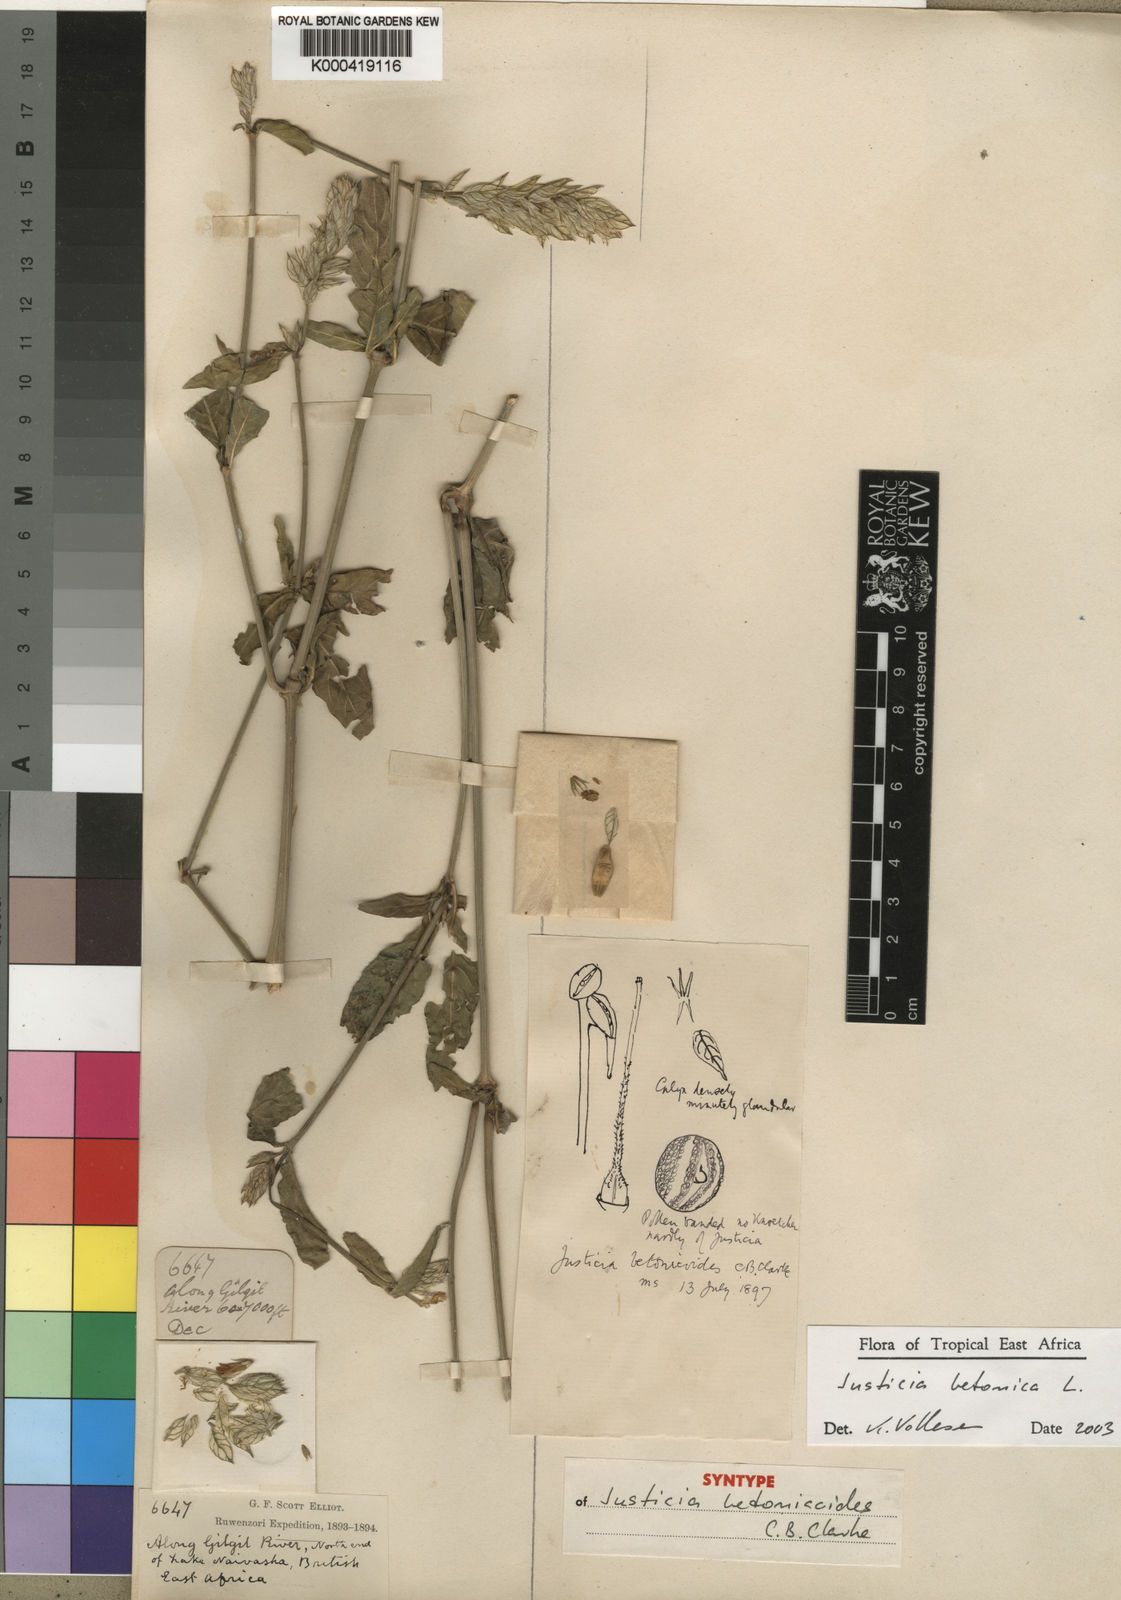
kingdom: Plantae
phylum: Tracheophyta
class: Magnoliopsida
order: Lamiales
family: Acanthaceae
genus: Nicoteba
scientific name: Nicoteba betonica
